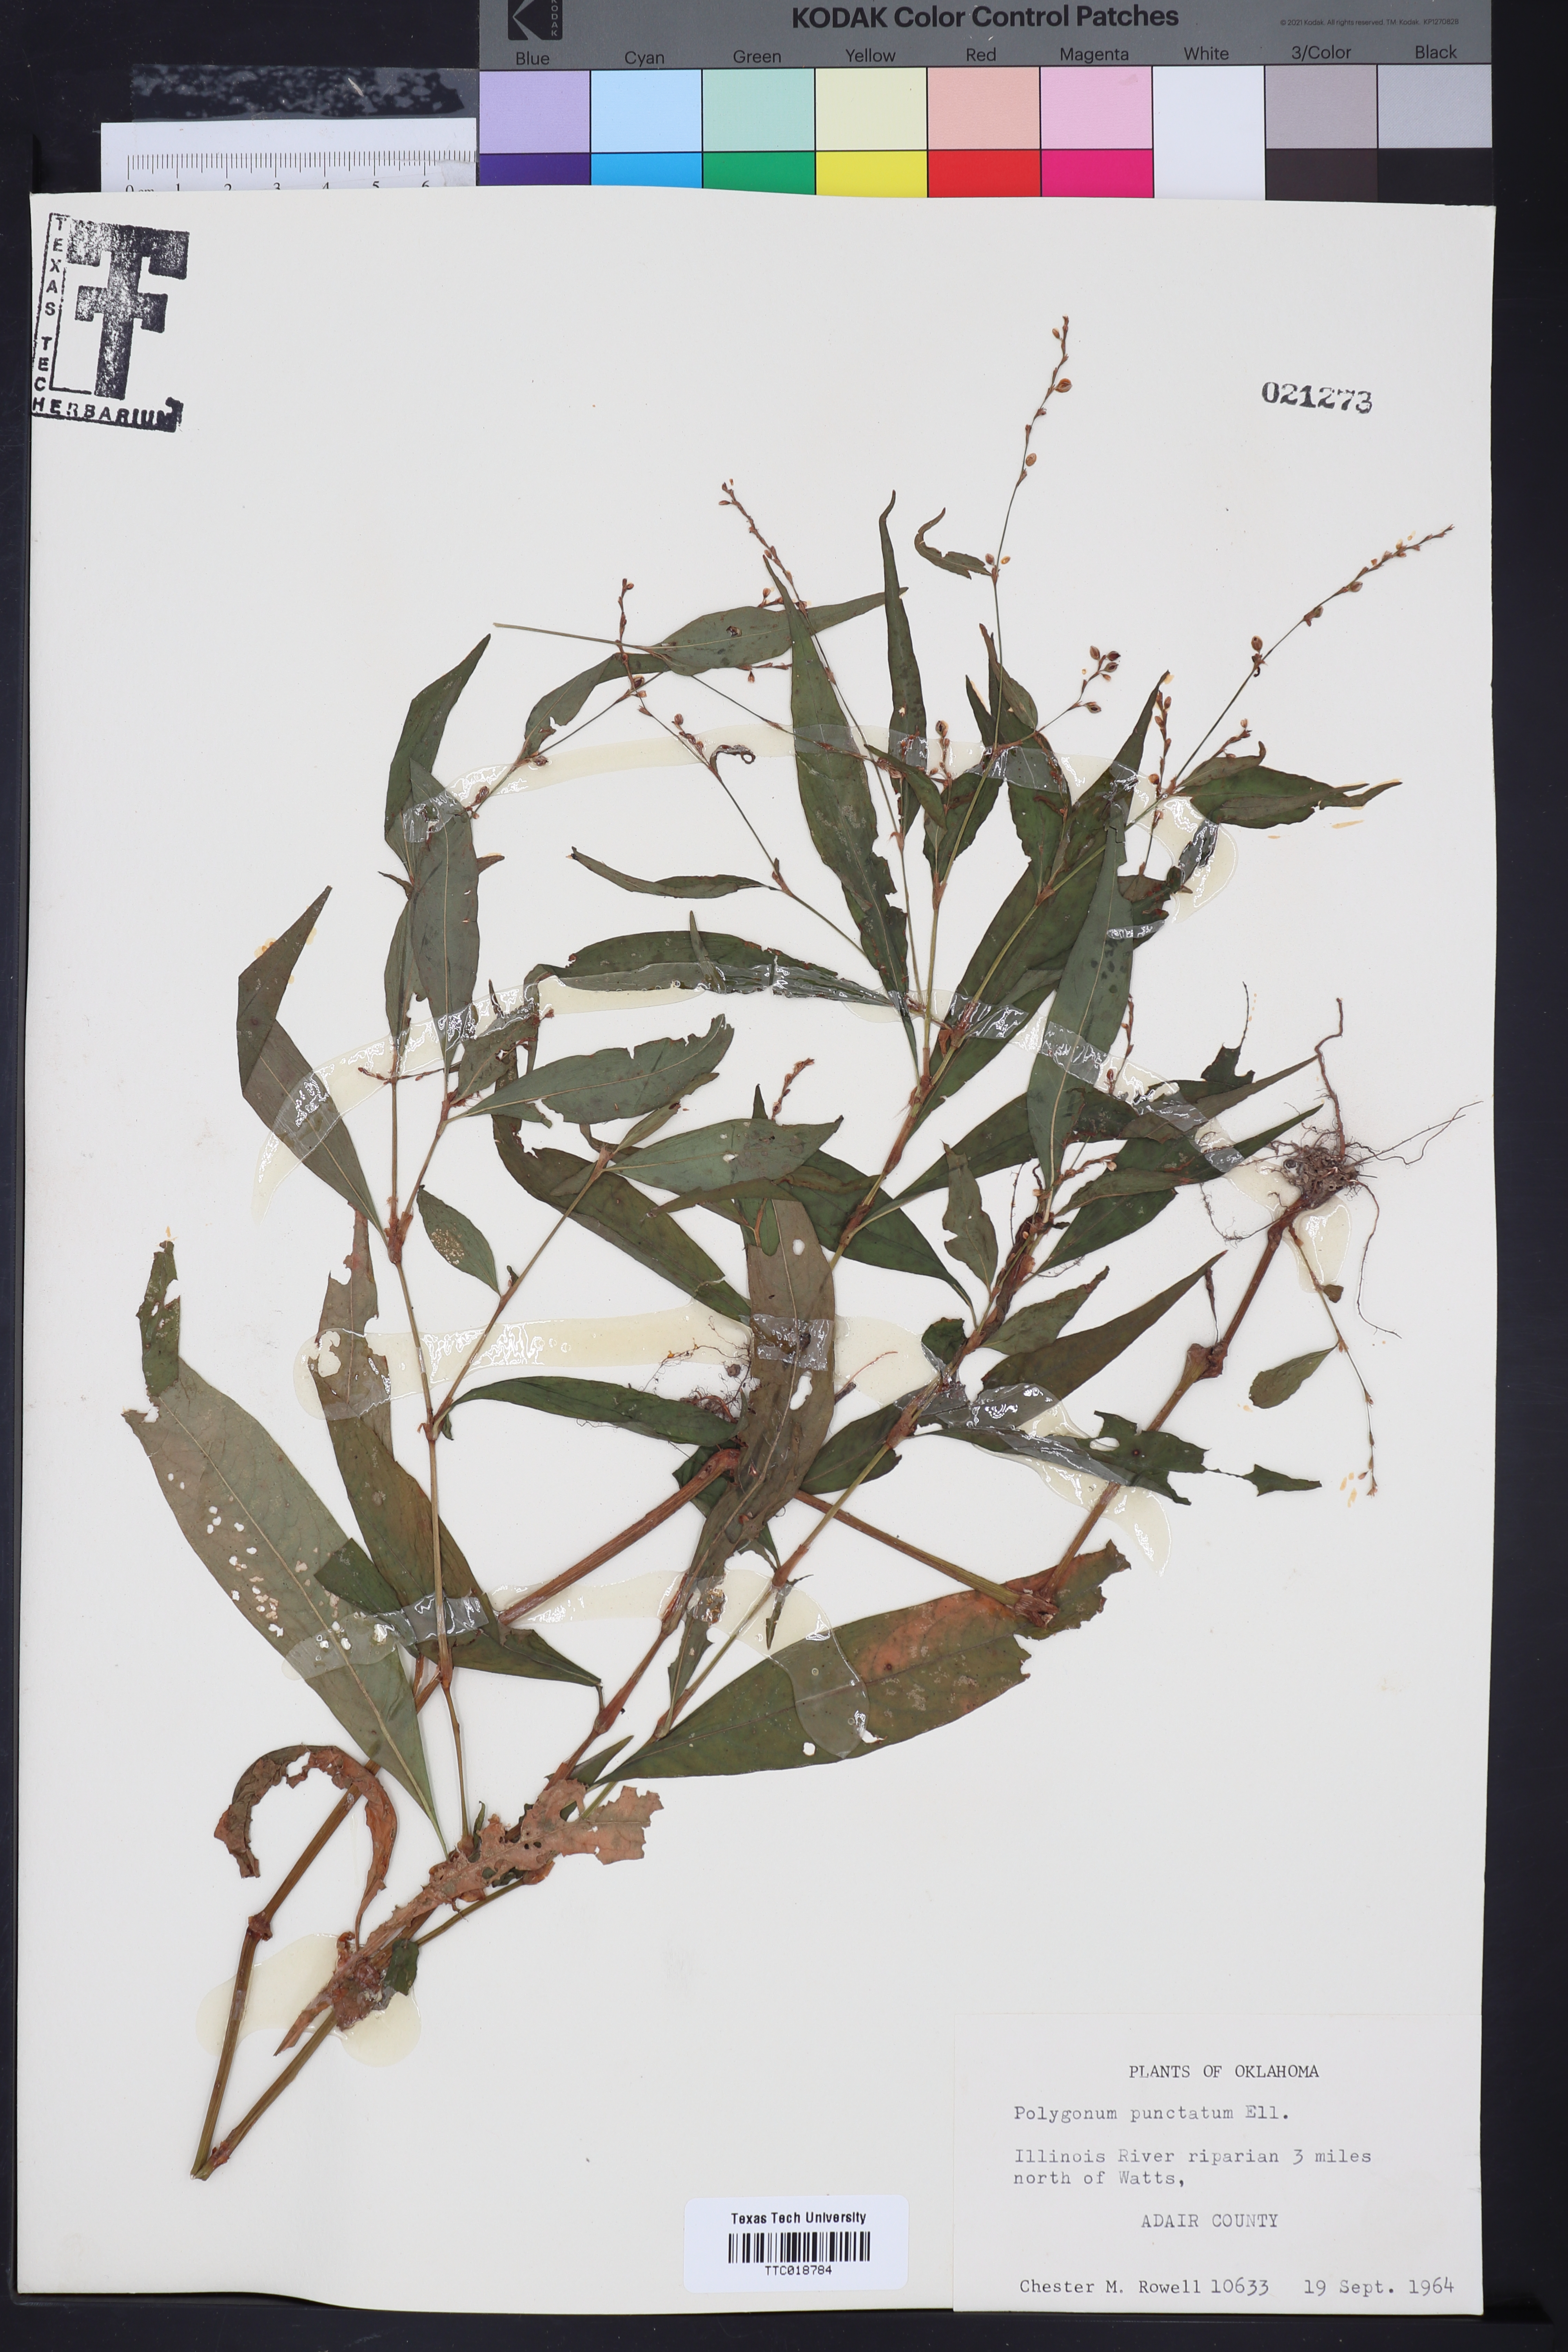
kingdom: Plantae
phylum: Tracheophyta
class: Magnoliopsida
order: Caryophyllales
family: Polygonaceae
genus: Persicaria
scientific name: Persicaria punctata
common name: Dotted smartweed
